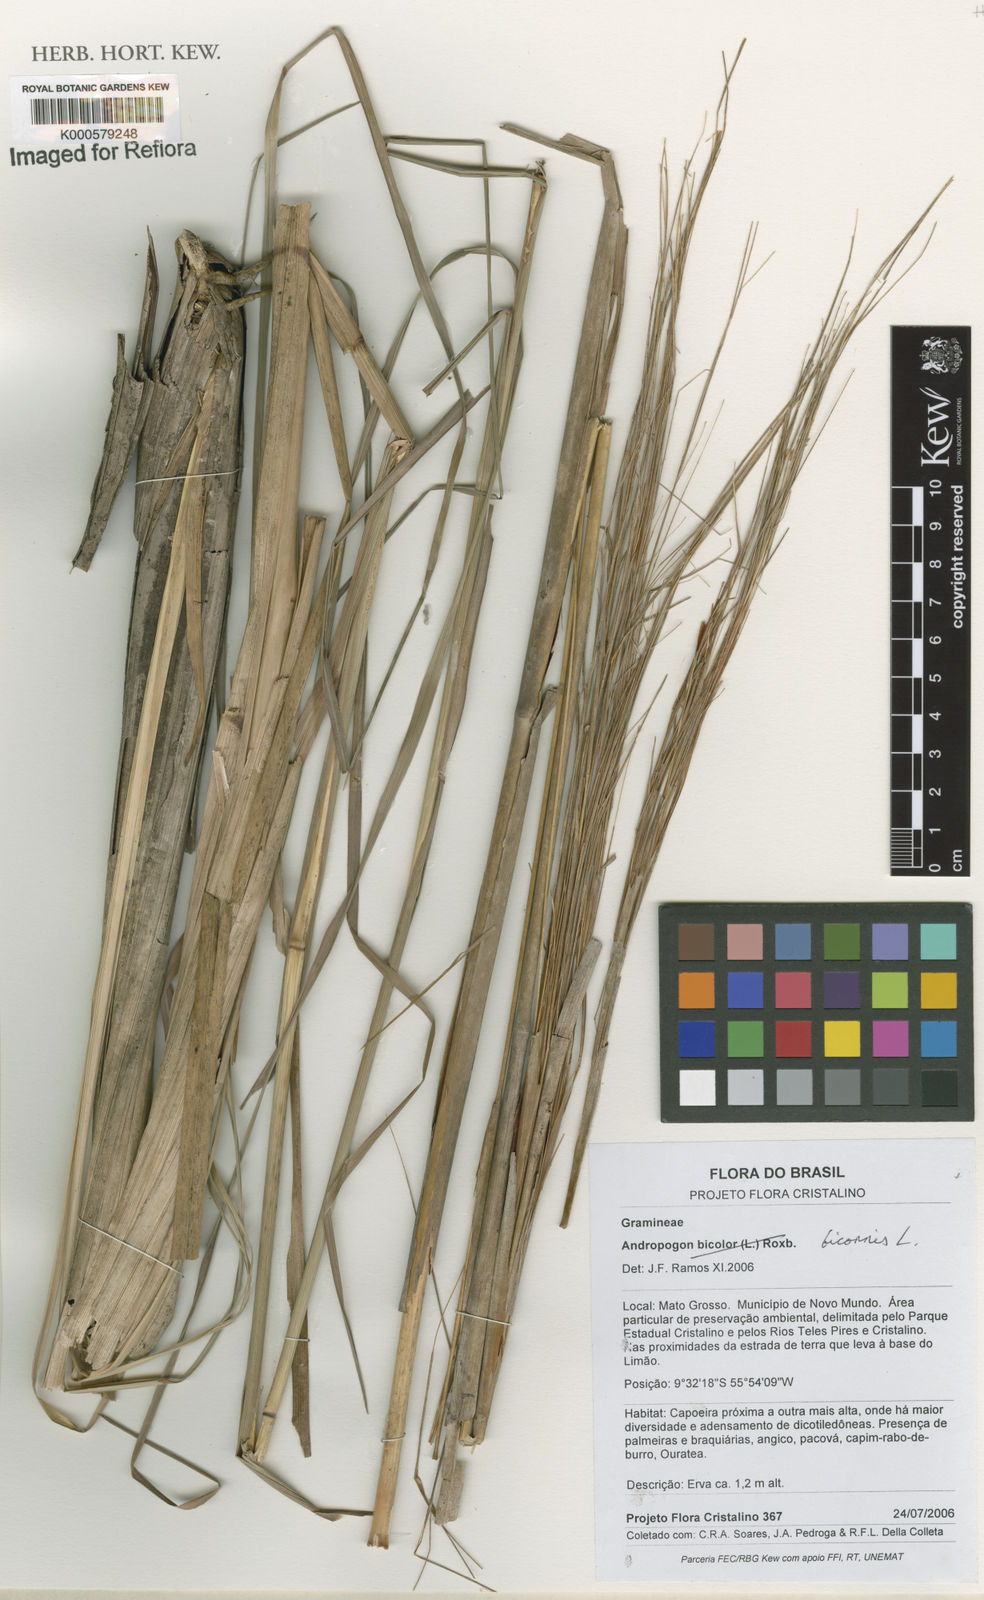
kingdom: Plantae
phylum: Tracheophyta
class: Liliopsida
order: Poales
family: Poaceae
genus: Andropogon
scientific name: Andropogon bicornis
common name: West indian foxtail grass
